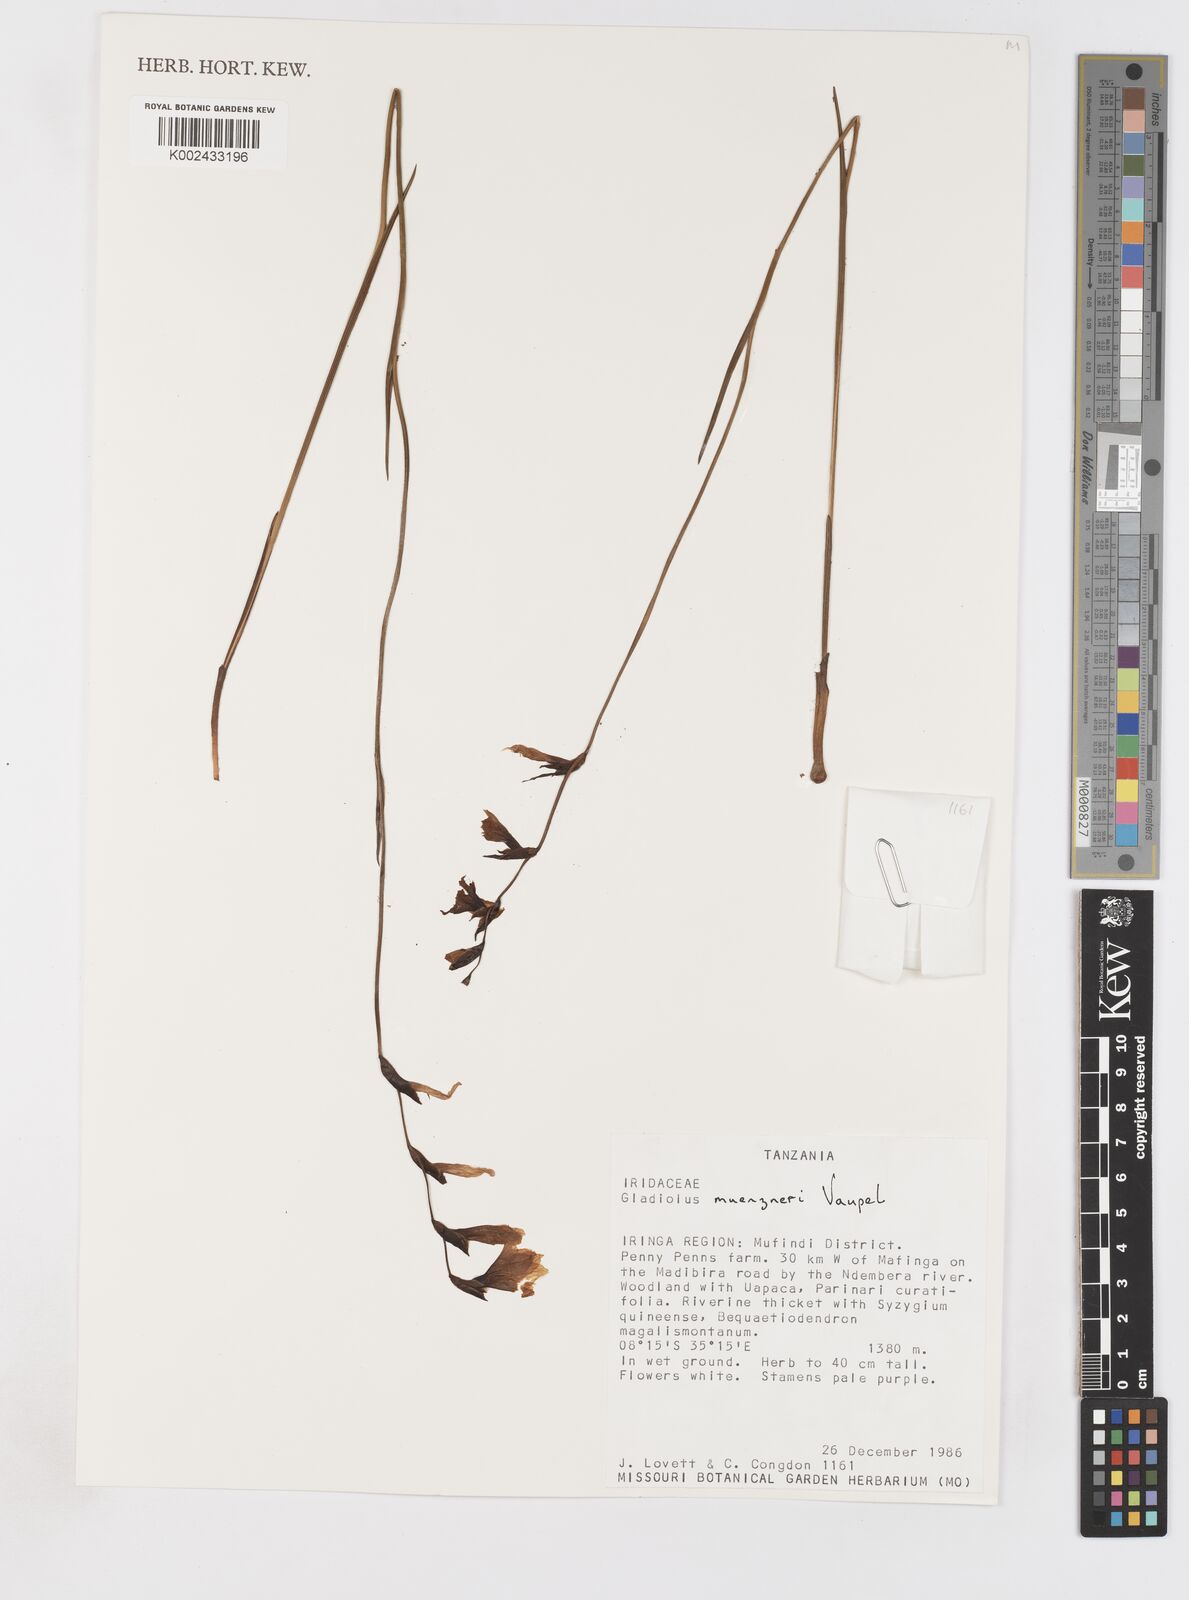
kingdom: Plantae
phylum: Tracheophyta
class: Liliopsida
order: Asparagales
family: Iridaceae
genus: Gladiolus
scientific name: Gladiolus muenzneri
